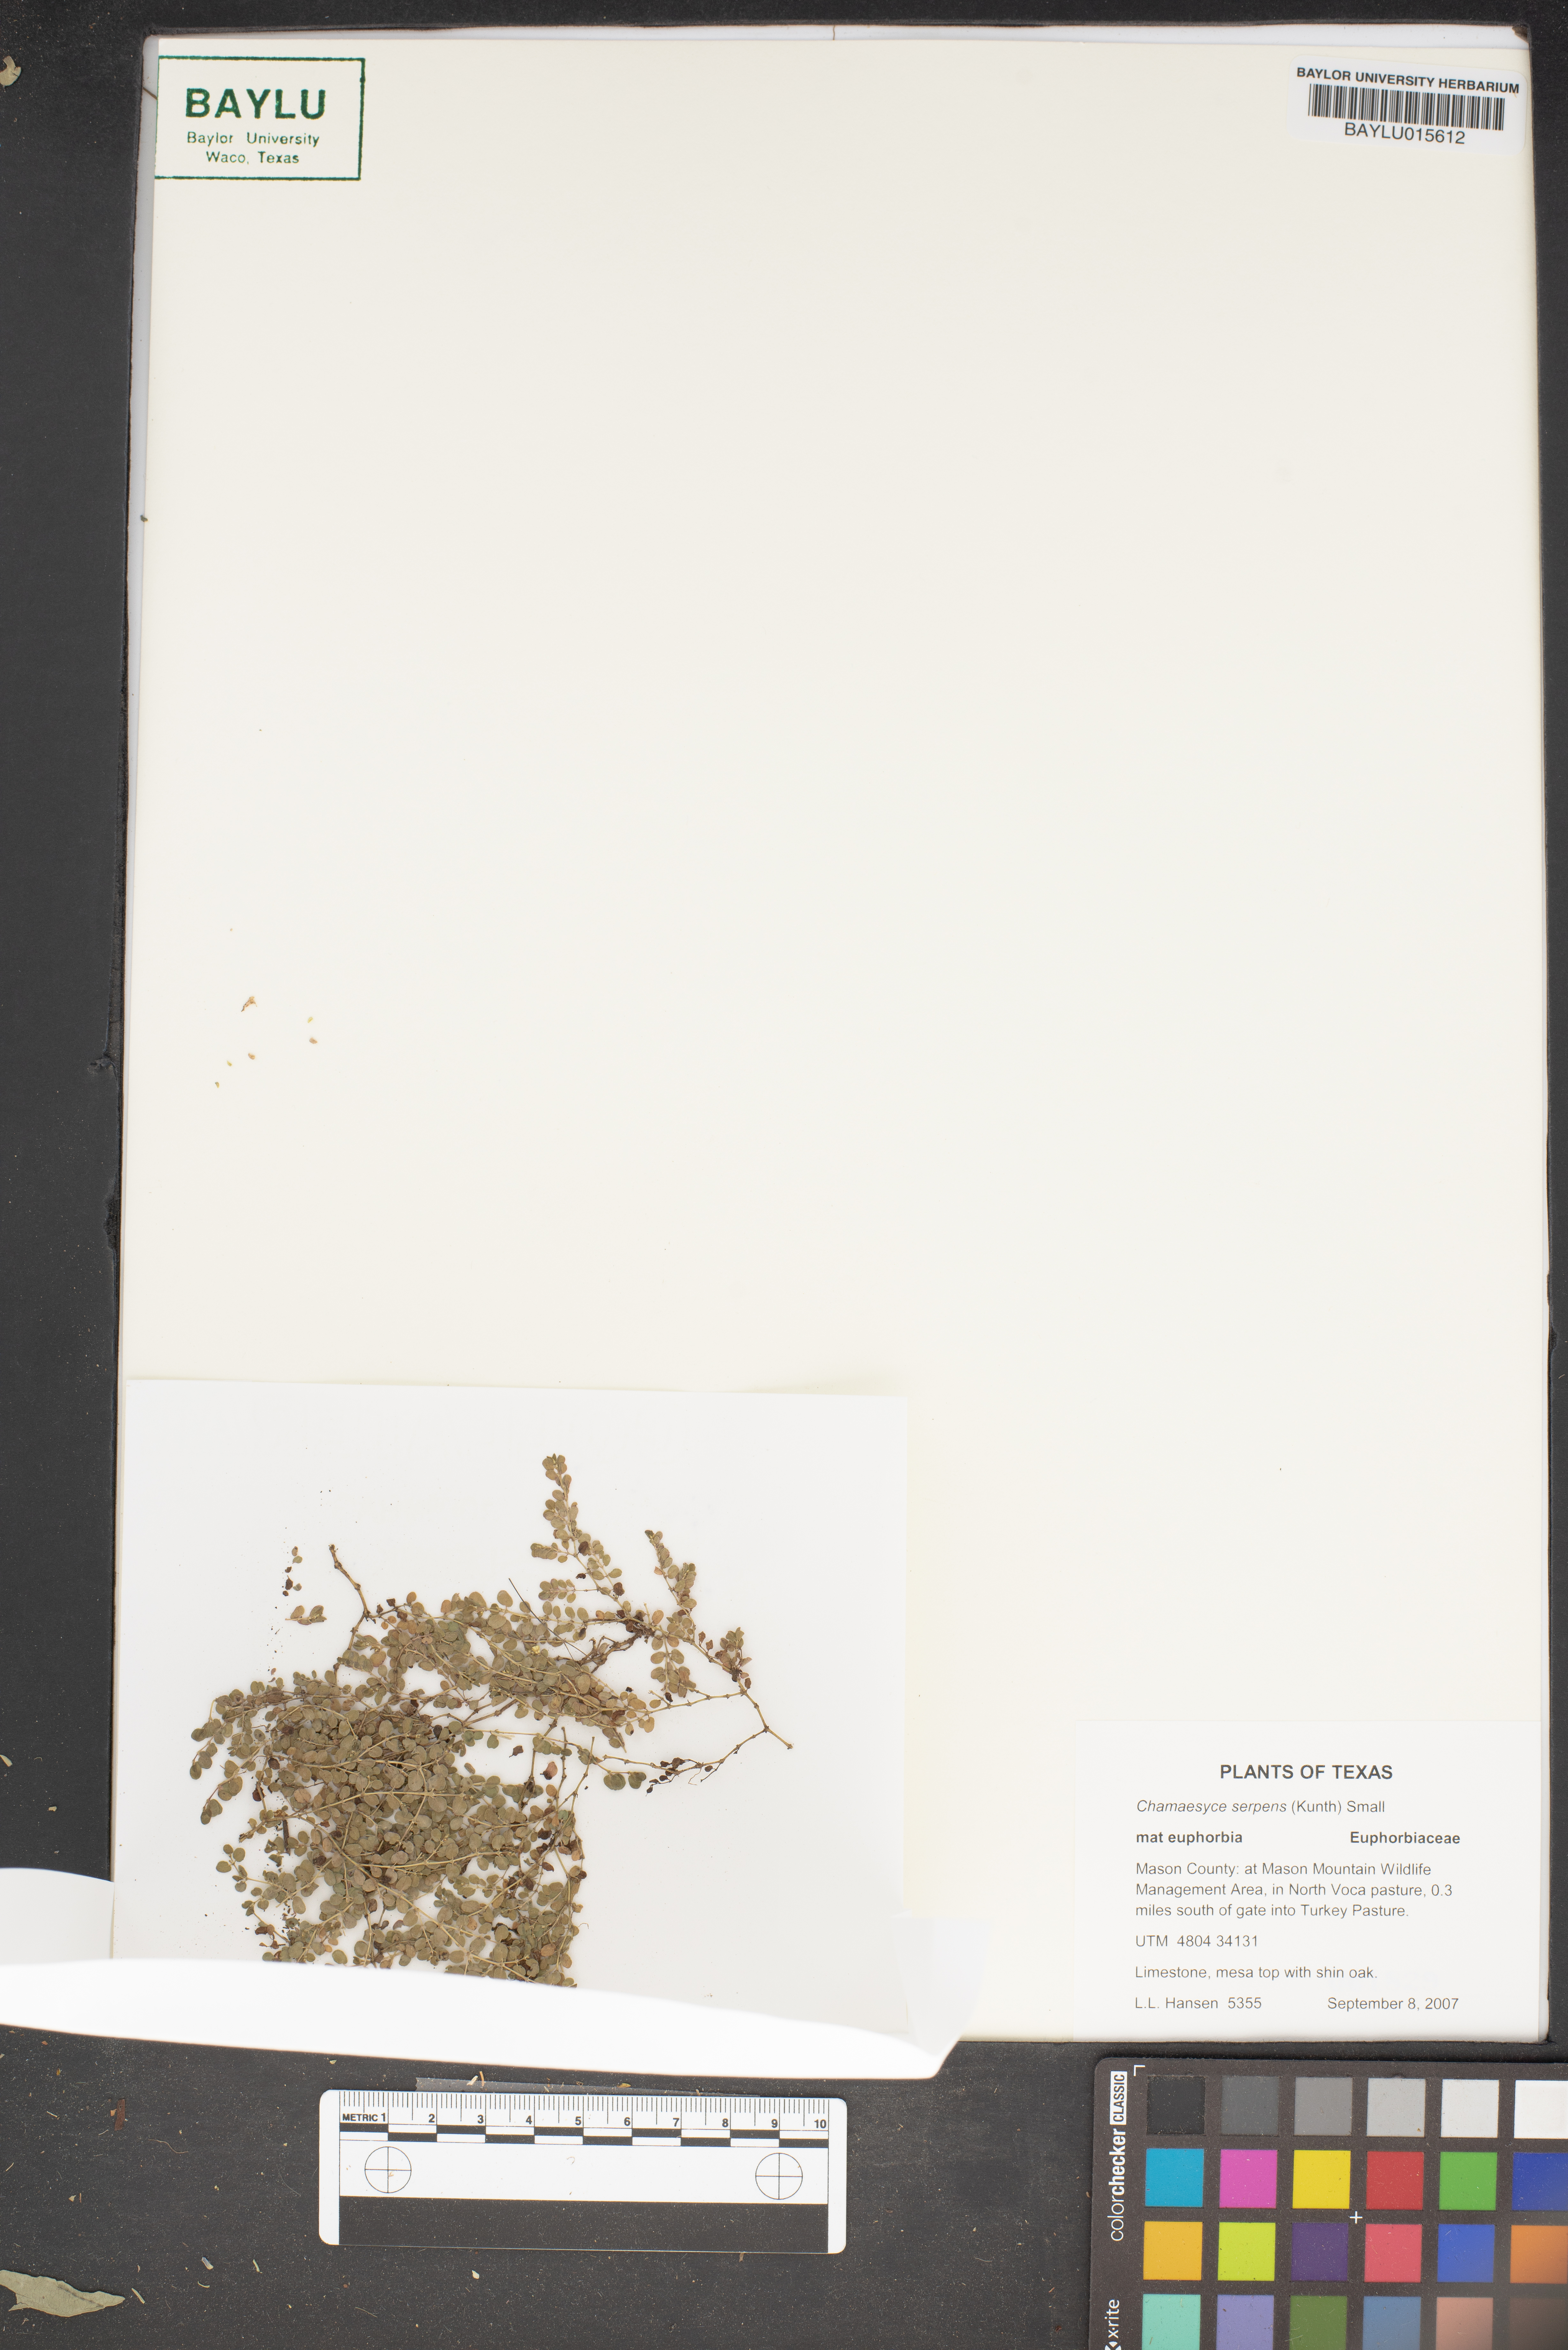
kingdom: Plantae
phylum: Tracheophyta
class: Magnoliopsida
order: Malpighiales
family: Euphorbiaceae
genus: Euphorbia
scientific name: Euphorbia serpens
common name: Matted sandmat
